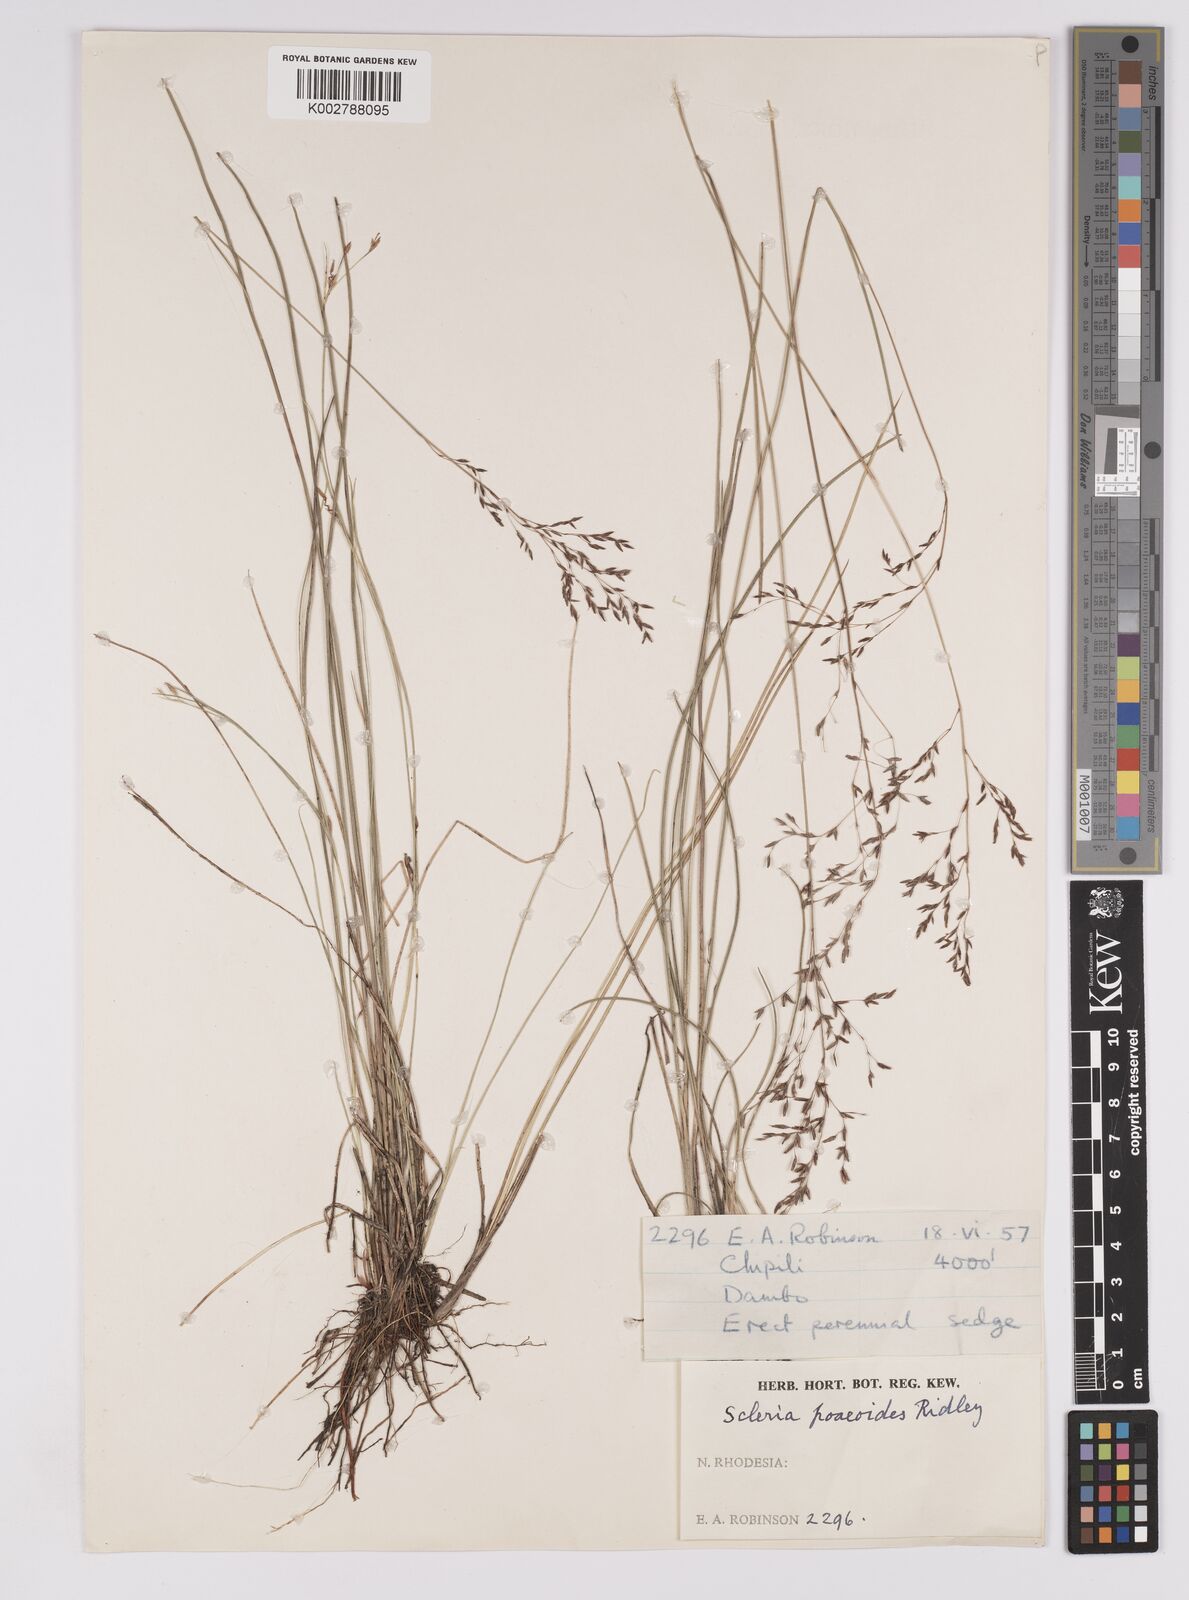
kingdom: Plantae
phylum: Tracheophyta
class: Liliopsida
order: Poales
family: Cyperaceae
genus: Scleria
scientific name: Scleria pooides
